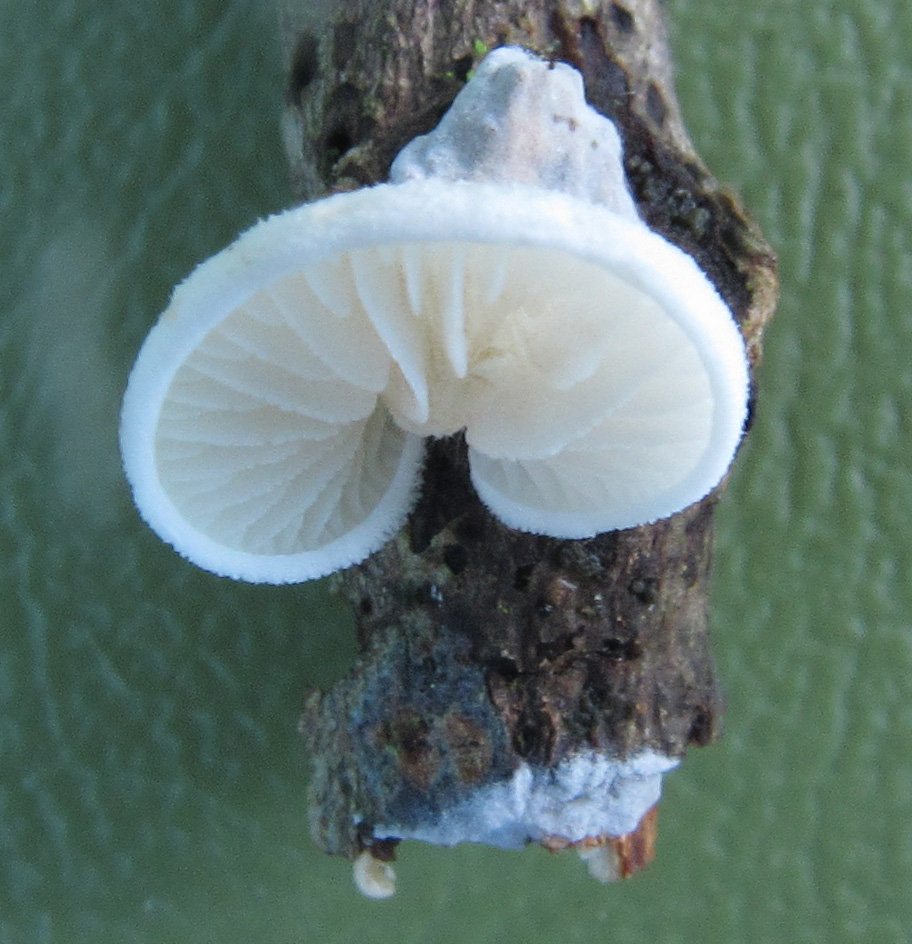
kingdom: Fungi
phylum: Basidiomycota
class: Agaricomycetes
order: Agaricales
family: Crepidotaceae
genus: Crepidotus
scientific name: Crepidotus caspari
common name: Lundells muslingesvamp
